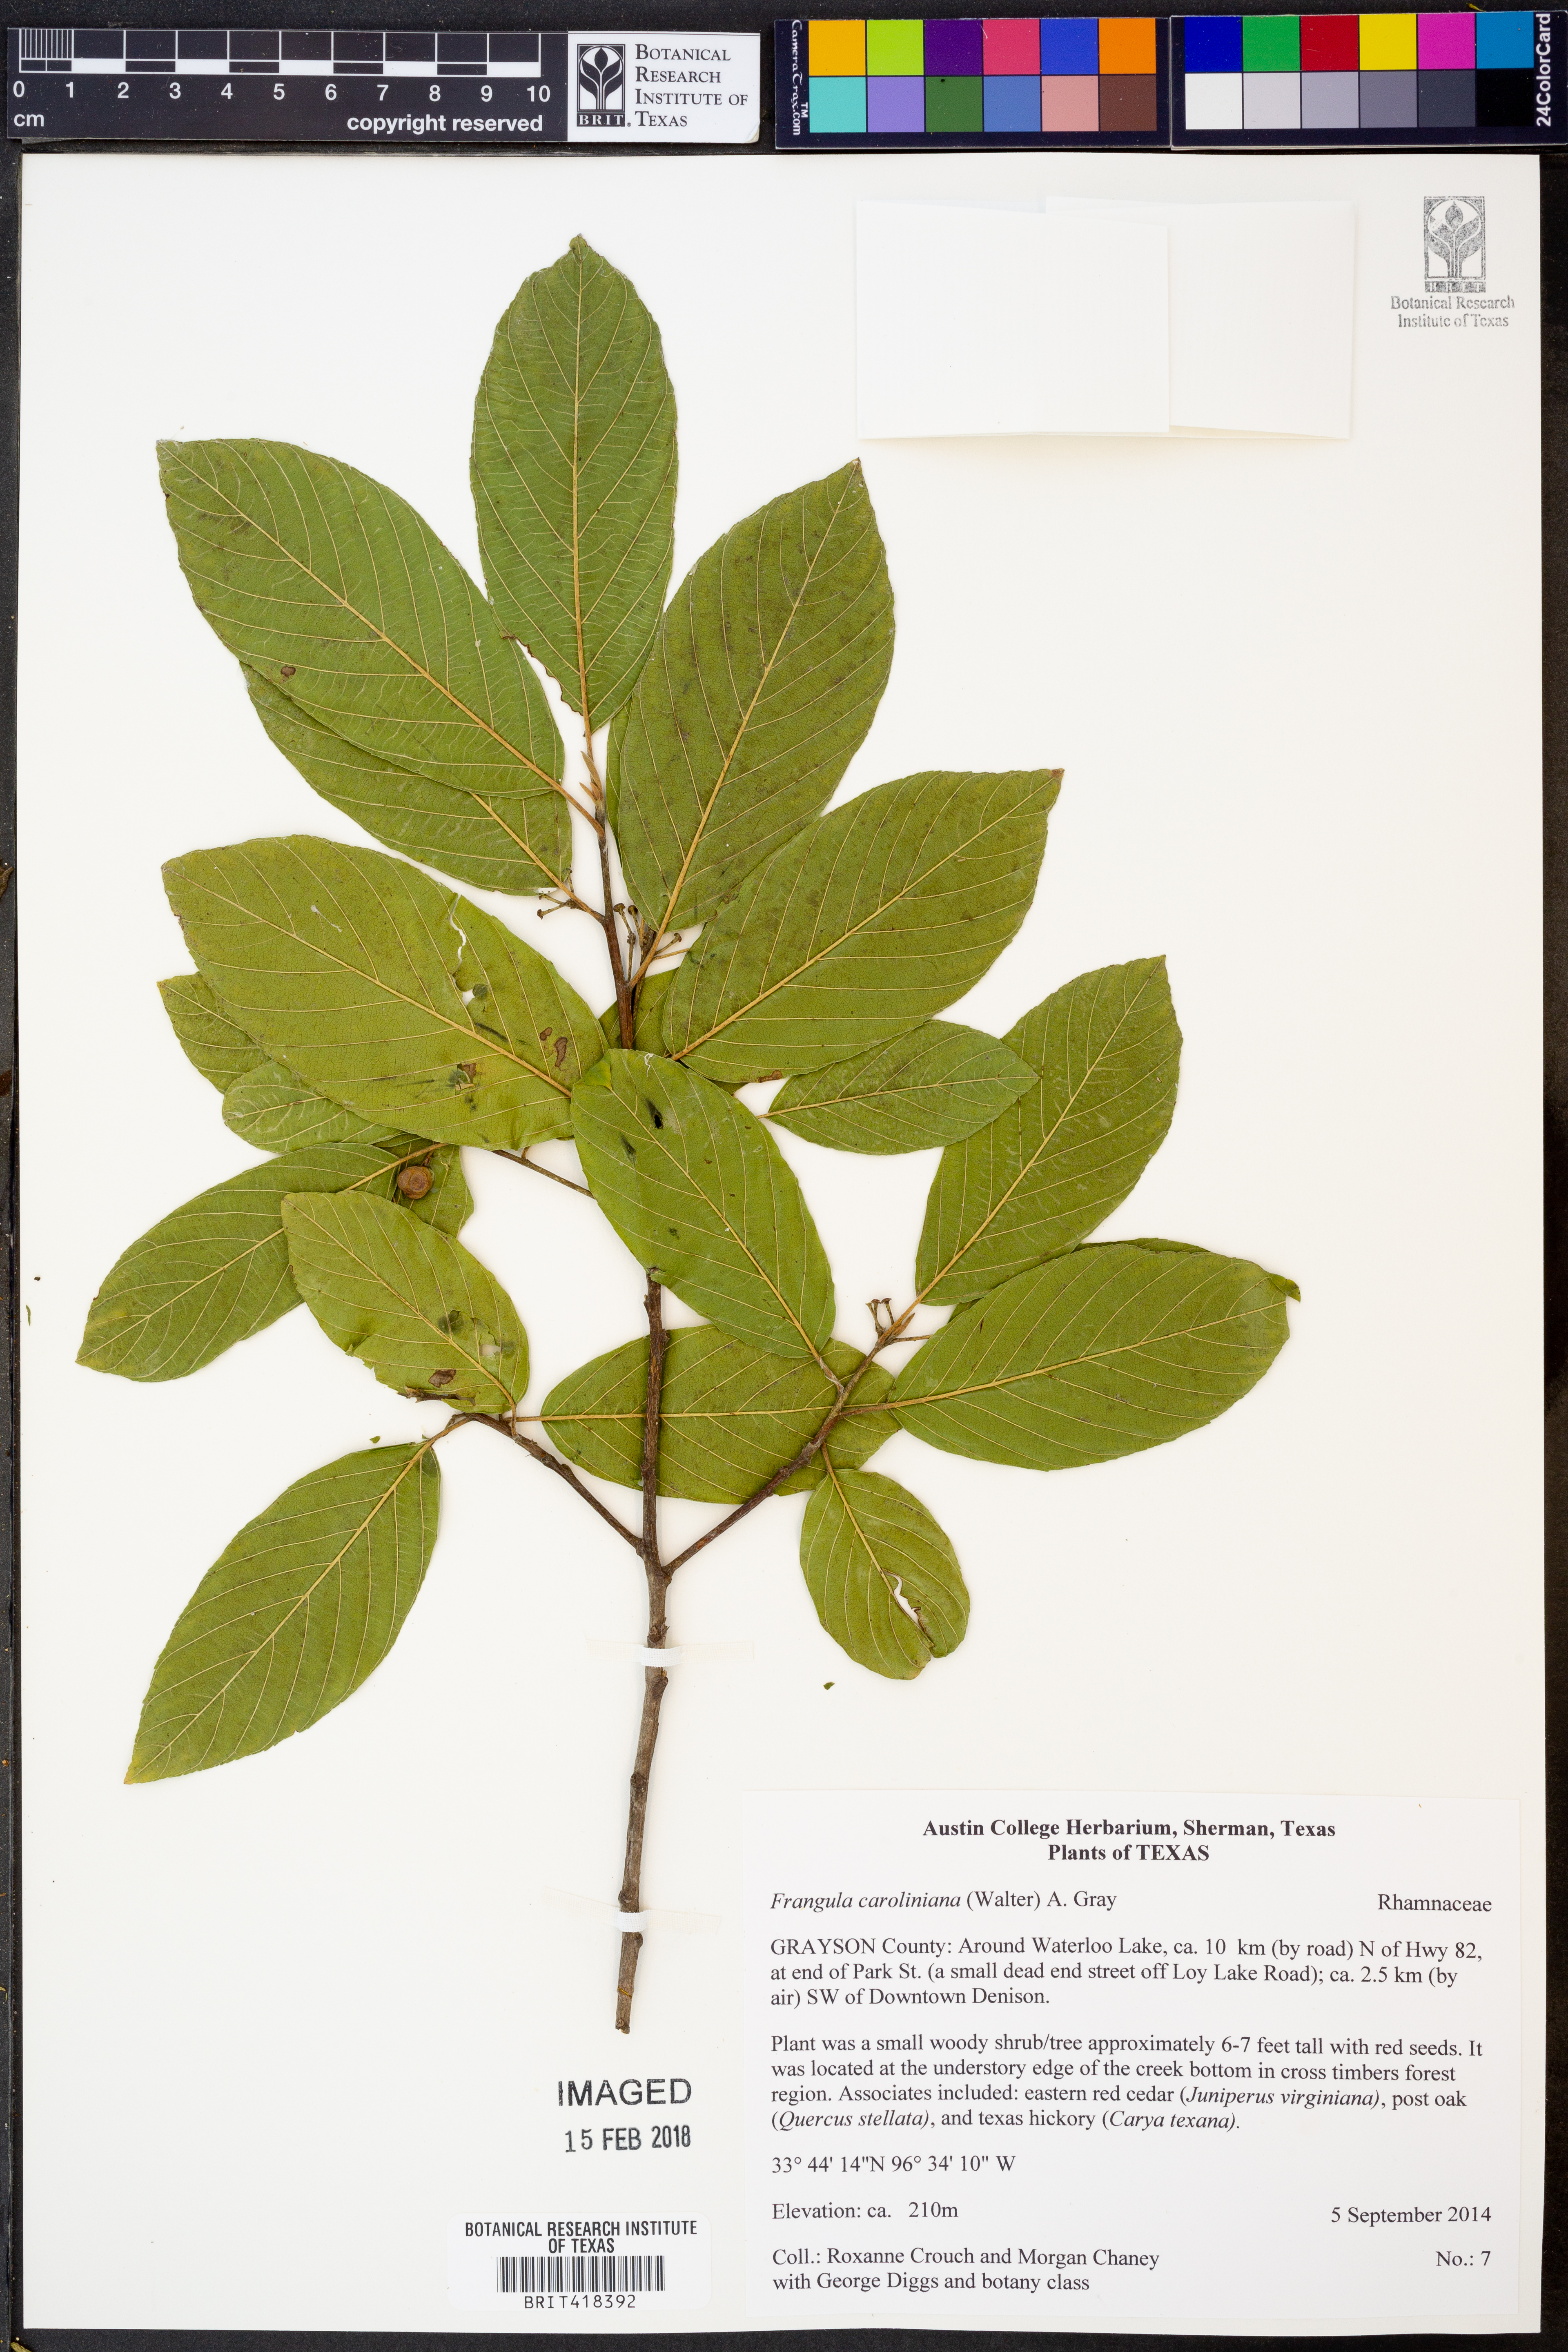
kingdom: Plantae
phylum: Tracheophyta
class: Magnoliopsida
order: Rosales
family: Rhamnaceae
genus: Frangula
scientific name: Frangula caroliniana
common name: Carolina buckthorn
